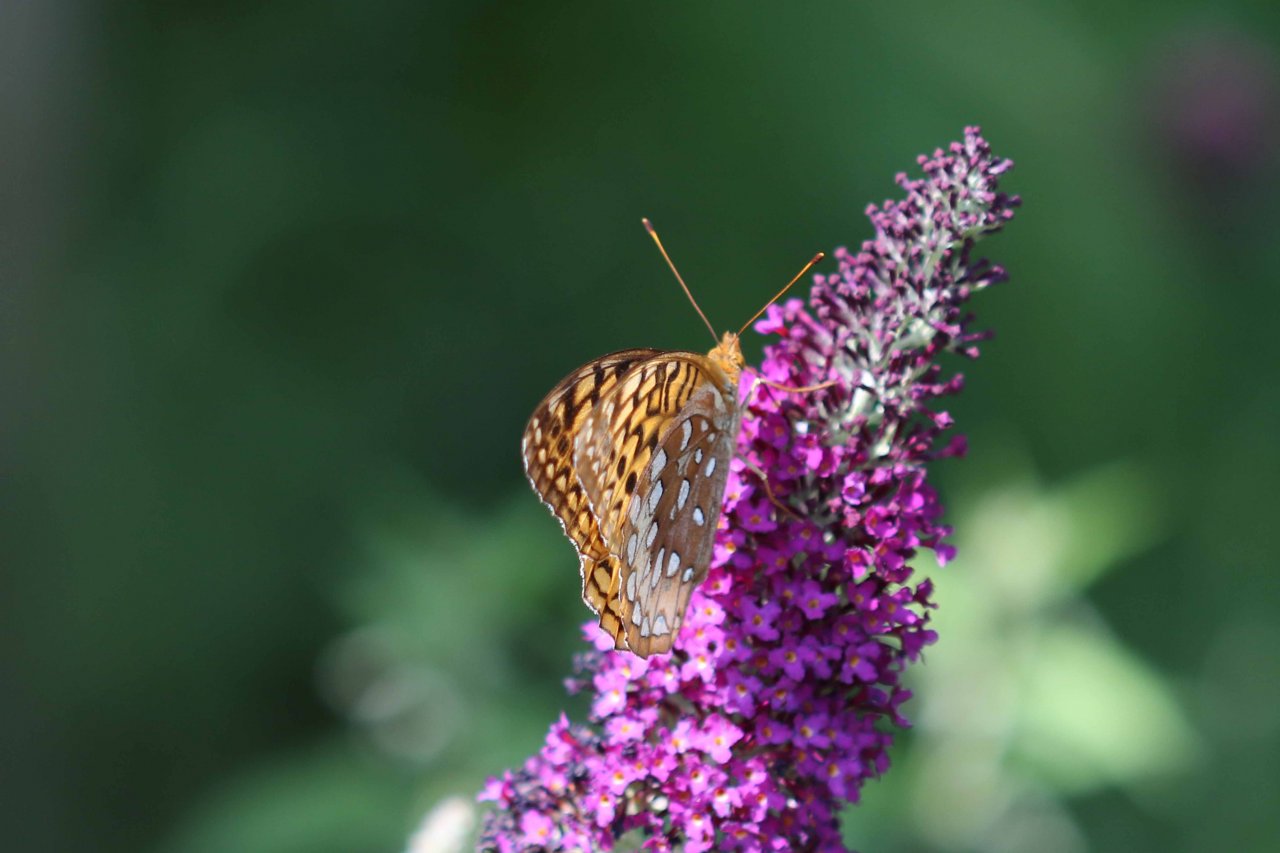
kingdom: Animalia
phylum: Arthropoda
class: Insecta
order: Lepidoptera
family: Nymphalidae
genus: Speyeria
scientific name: Speyeria cybele
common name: Great Spangled Fritillary
